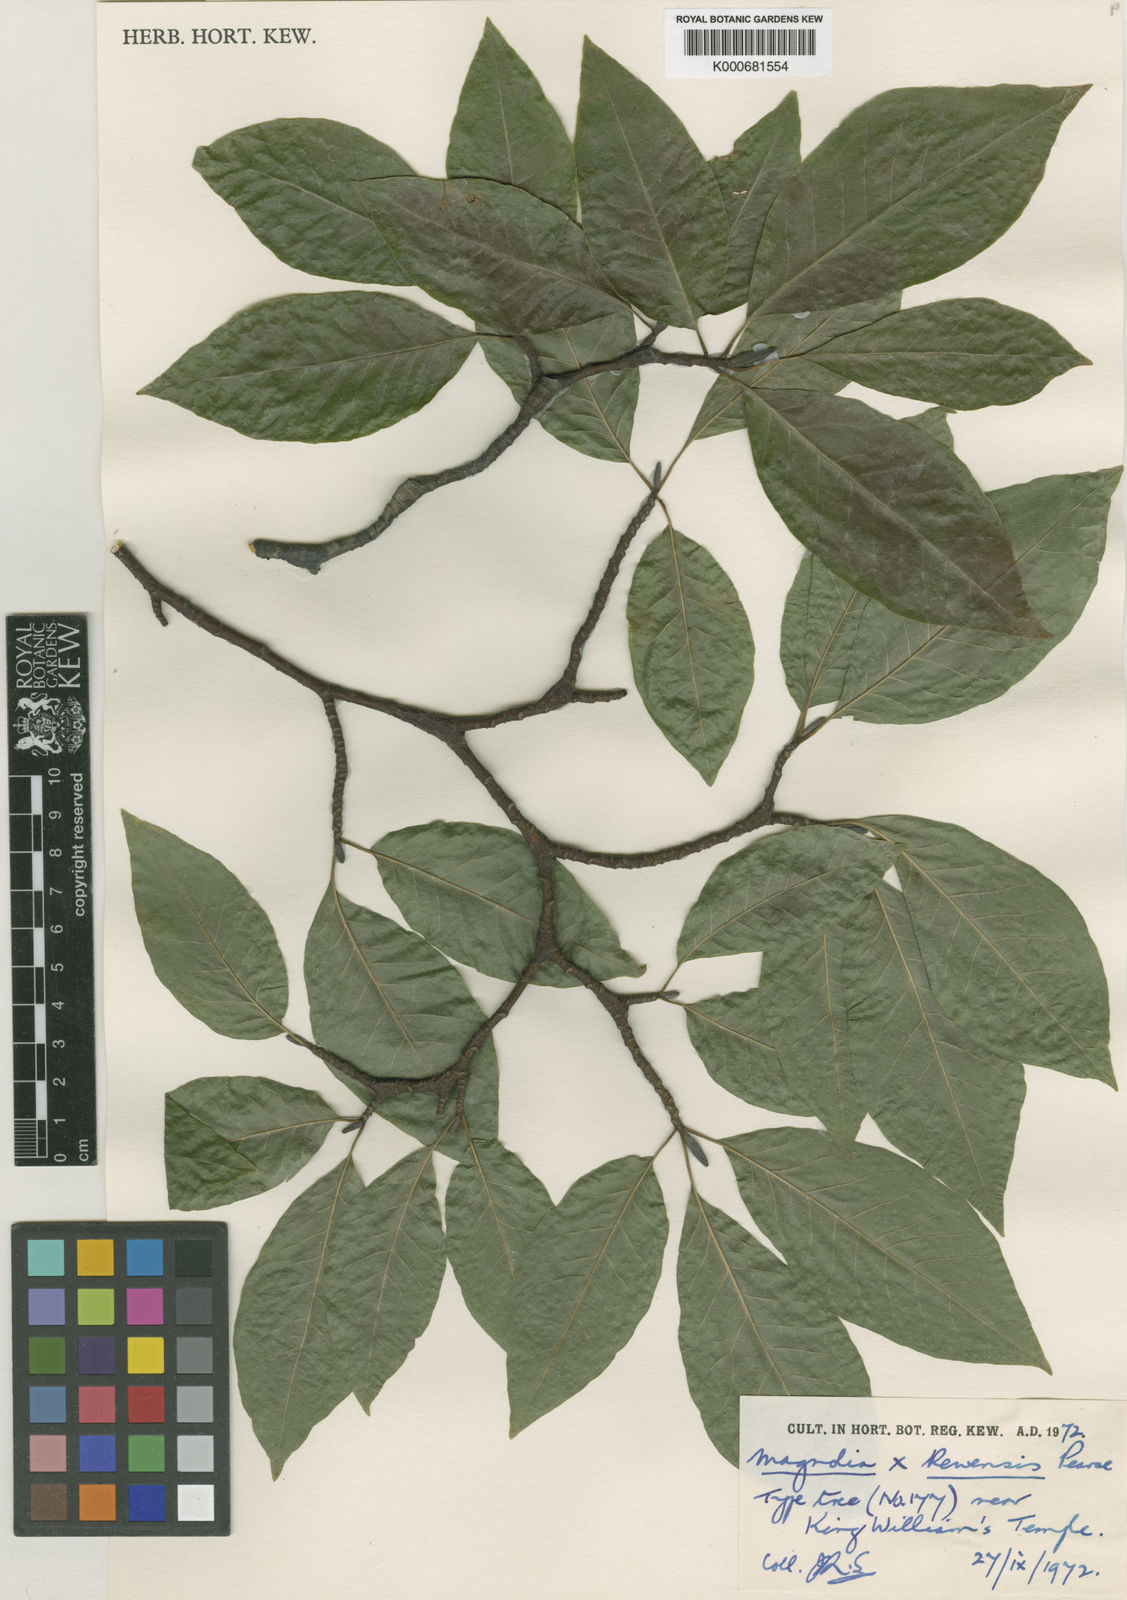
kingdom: Plantae
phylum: Tracheophyta
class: Magnoliopsida
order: Magnoliales
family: Magnoliaceae
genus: Magnolia
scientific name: Magnolia salicifolia
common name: Anise magnolia
